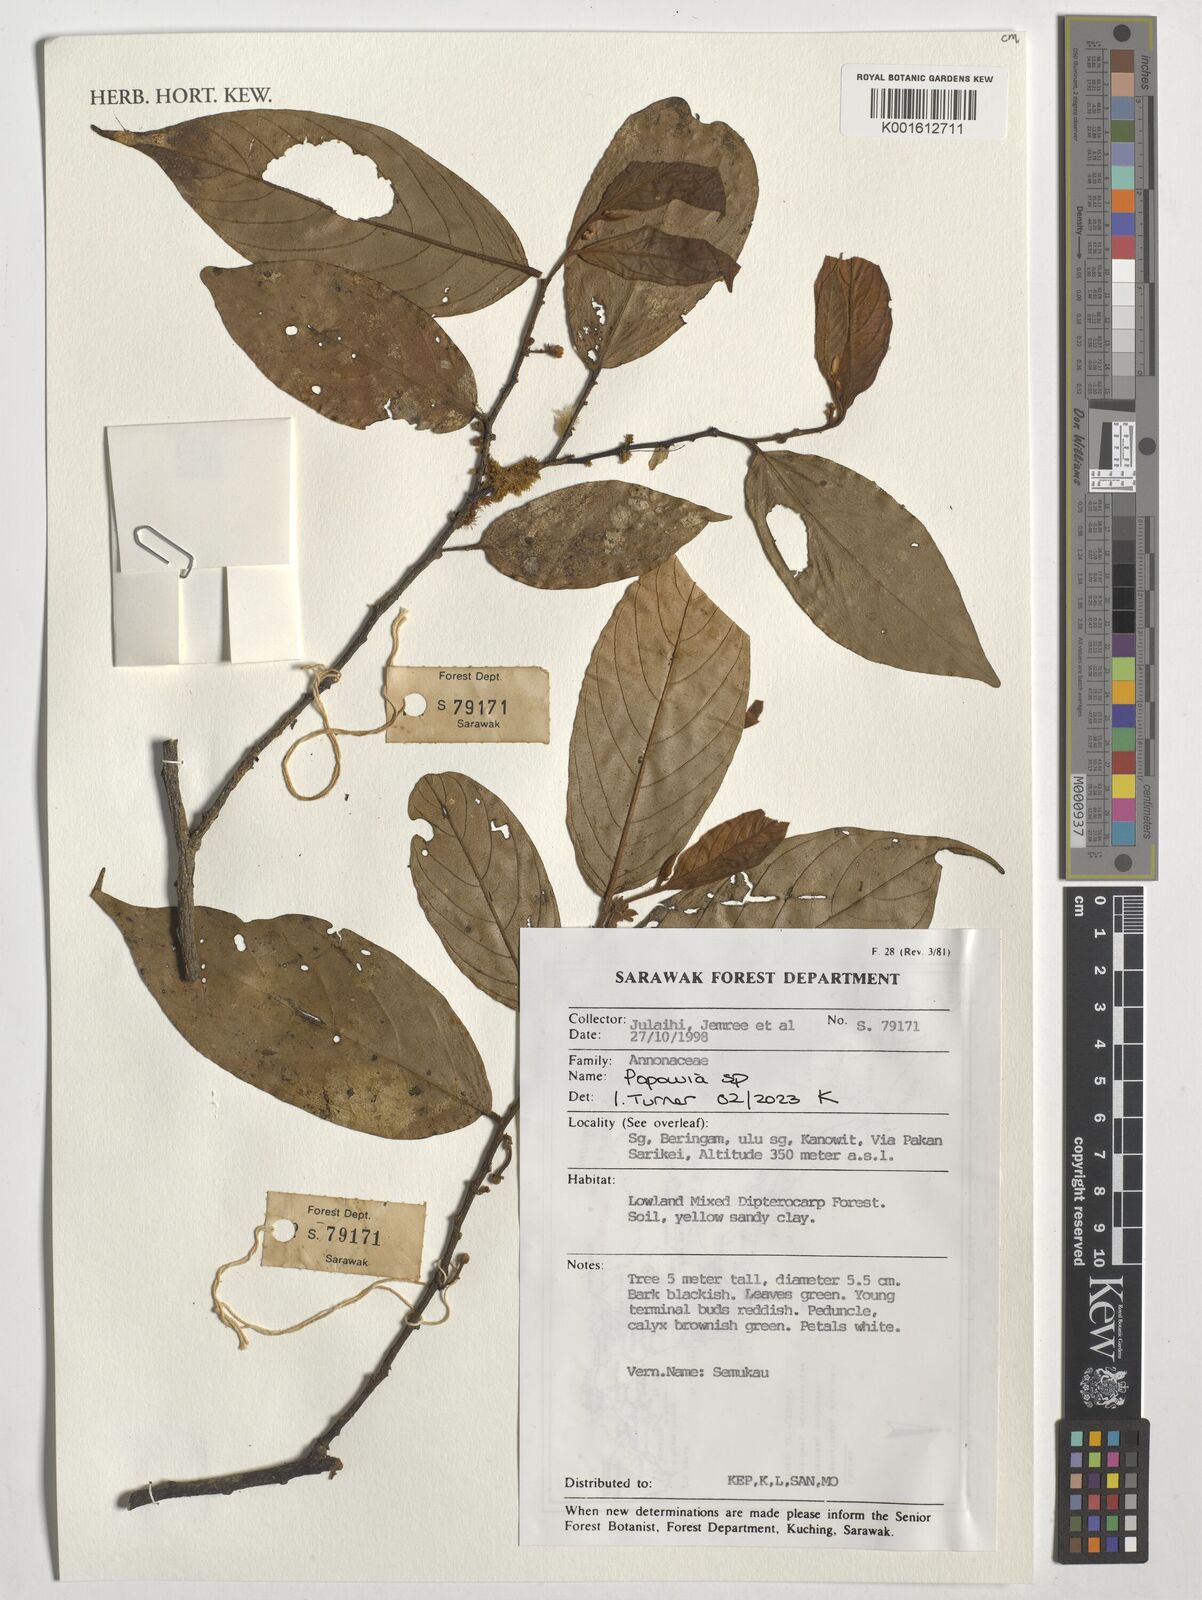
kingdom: Plantae
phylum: Tracheophyta
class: Magnoliopsida
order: Magnoliales
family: Annonaceae
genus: Popowia
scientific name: Popowia
